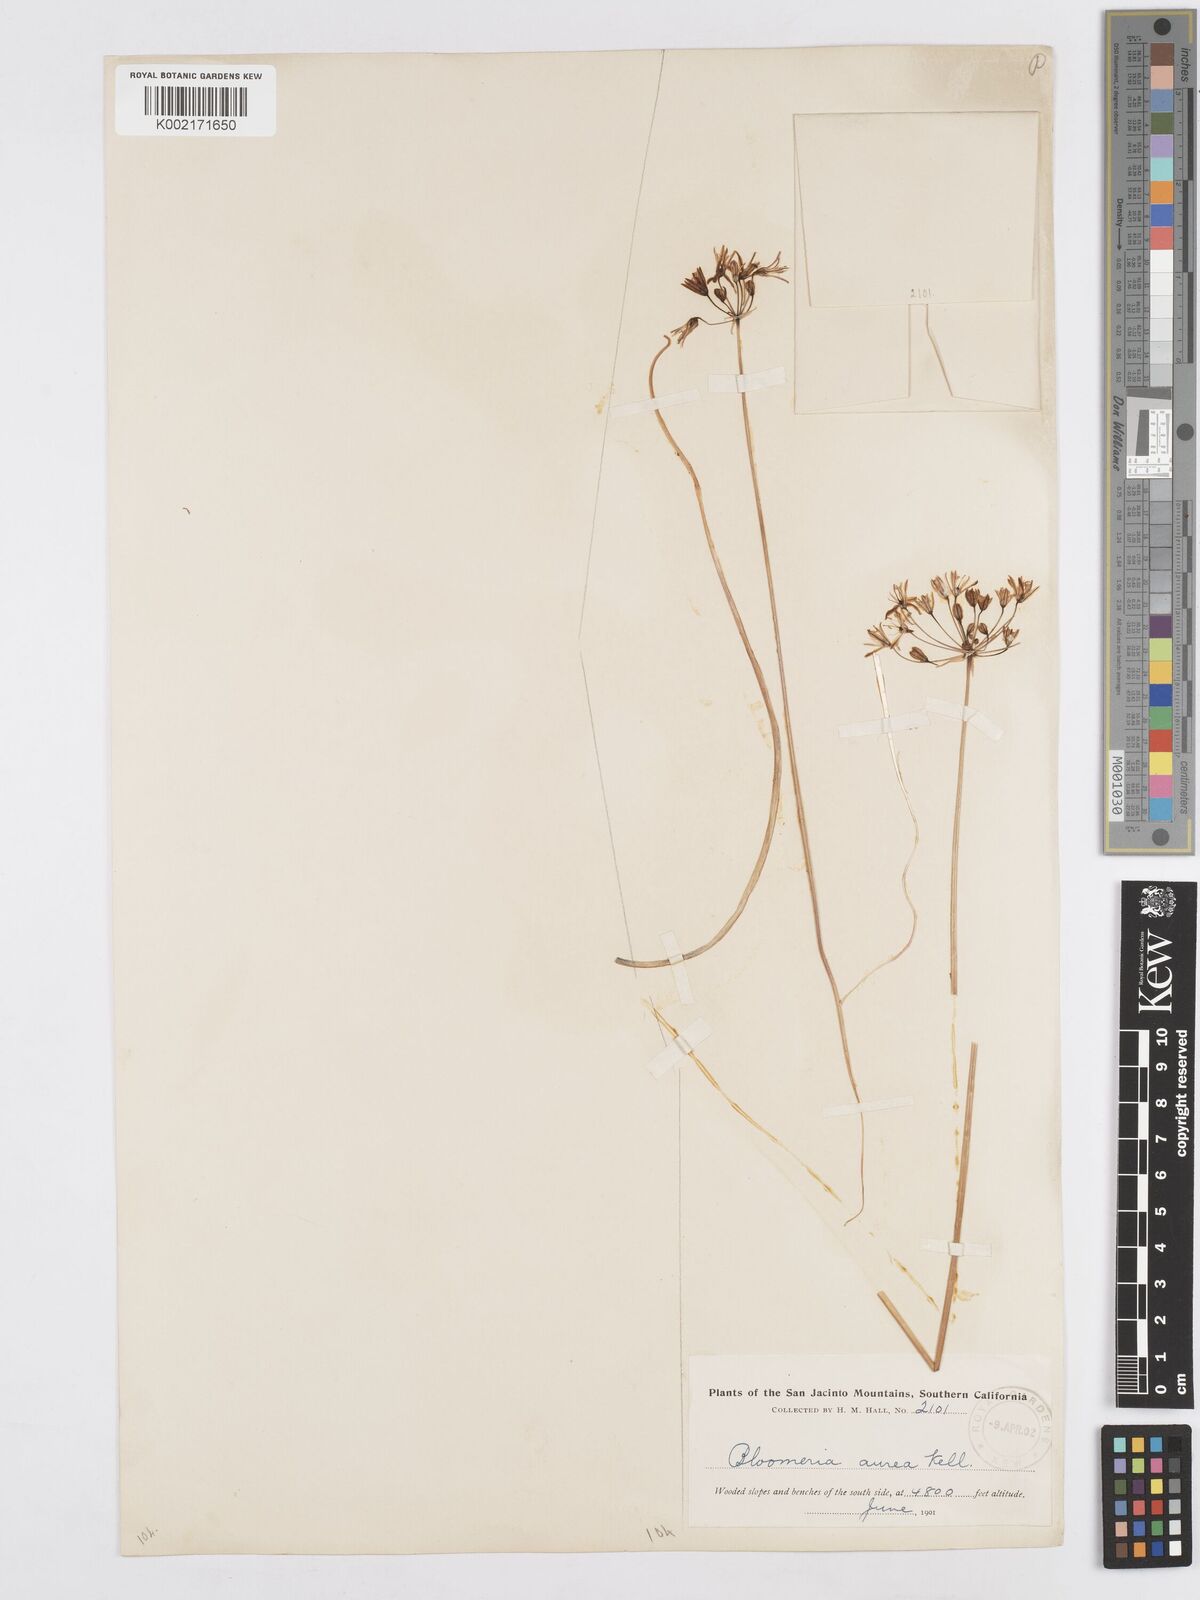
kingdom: Plantae
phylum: Tracheophyta
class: Liliopsida
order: Asparagales
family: Asparagaceae
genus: Bloomeria
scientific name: Bloomeria crocea
